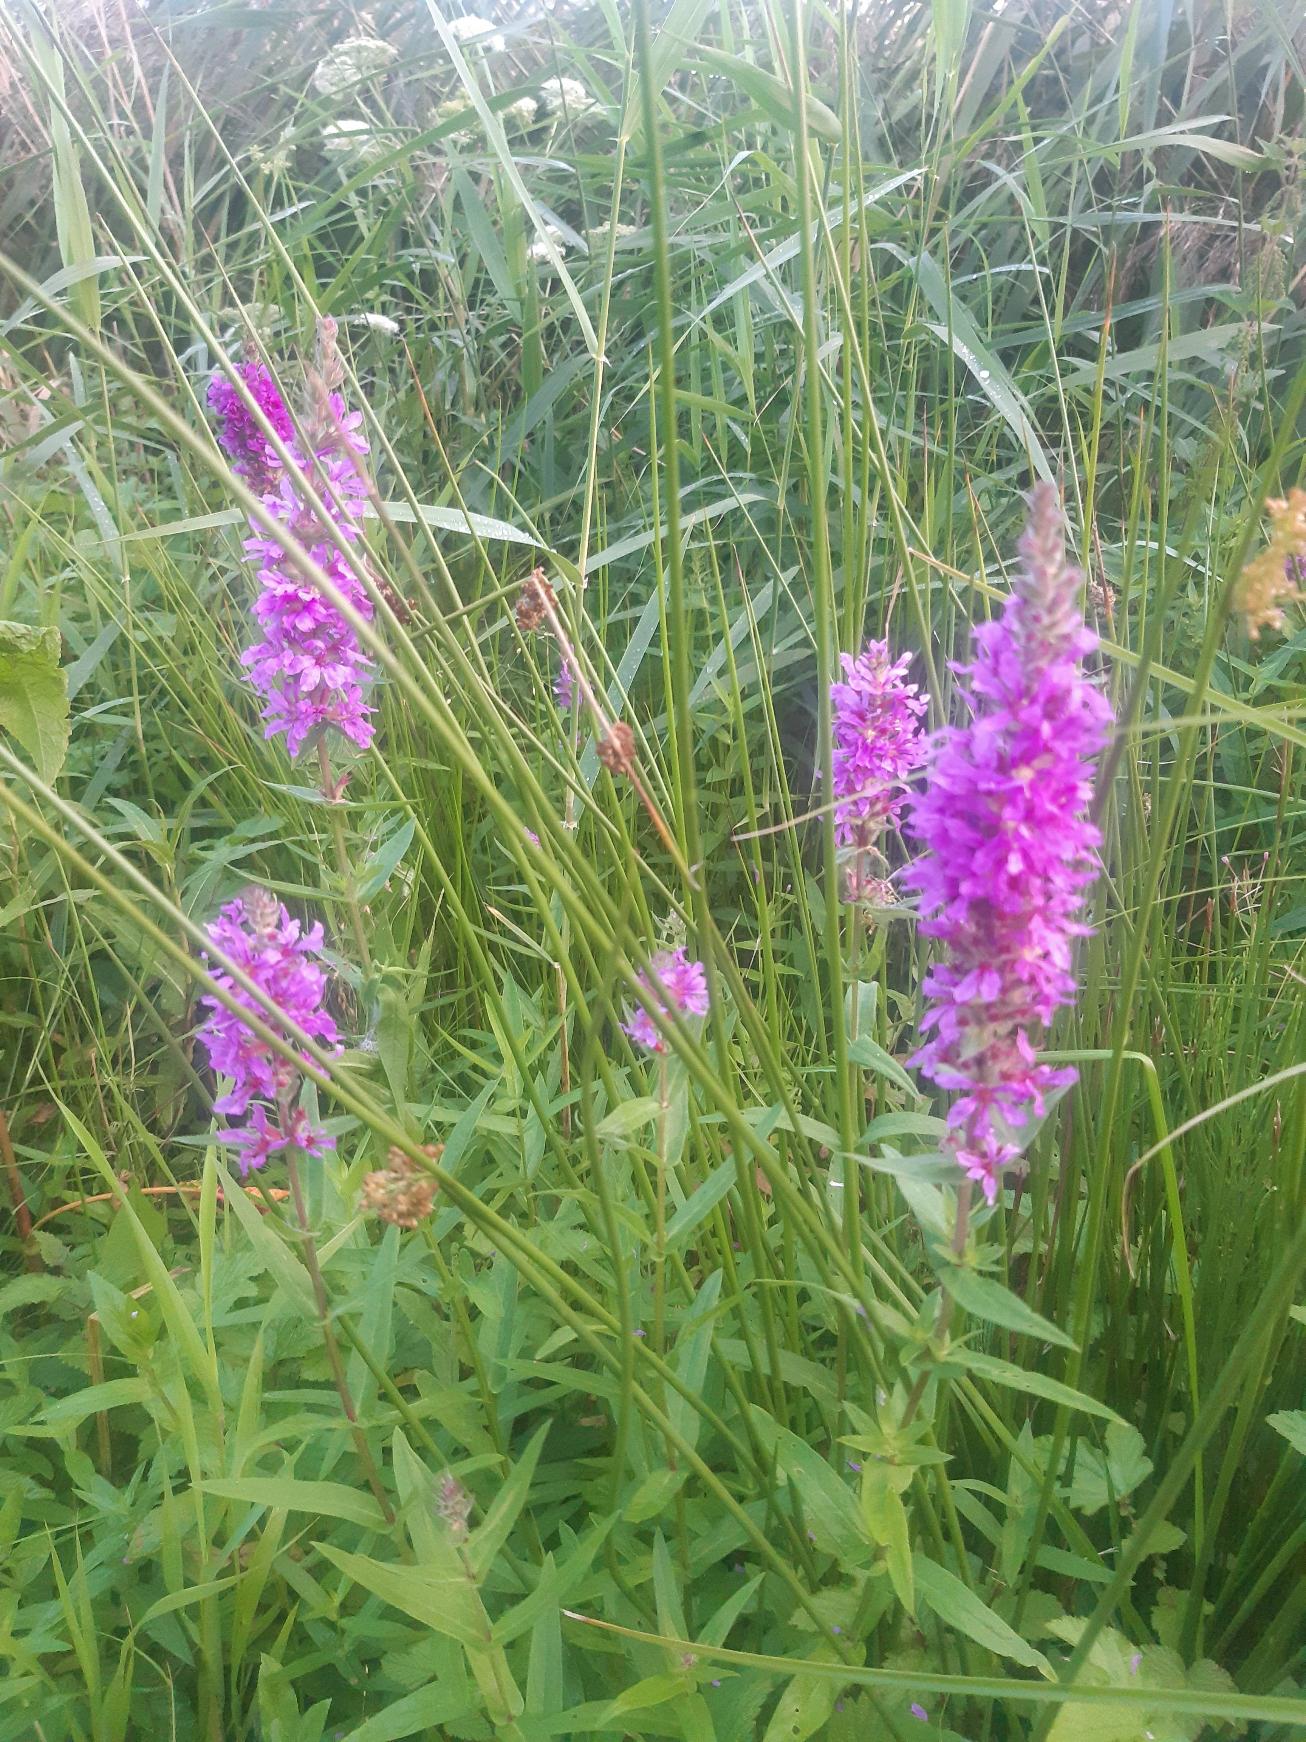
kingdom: Plantae
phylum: Tracheophyta
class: Magnoliopsida
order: Myrtales
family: Lythraceae
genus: Lythrum
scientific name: Lythrum salicaria
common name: Kattehale
